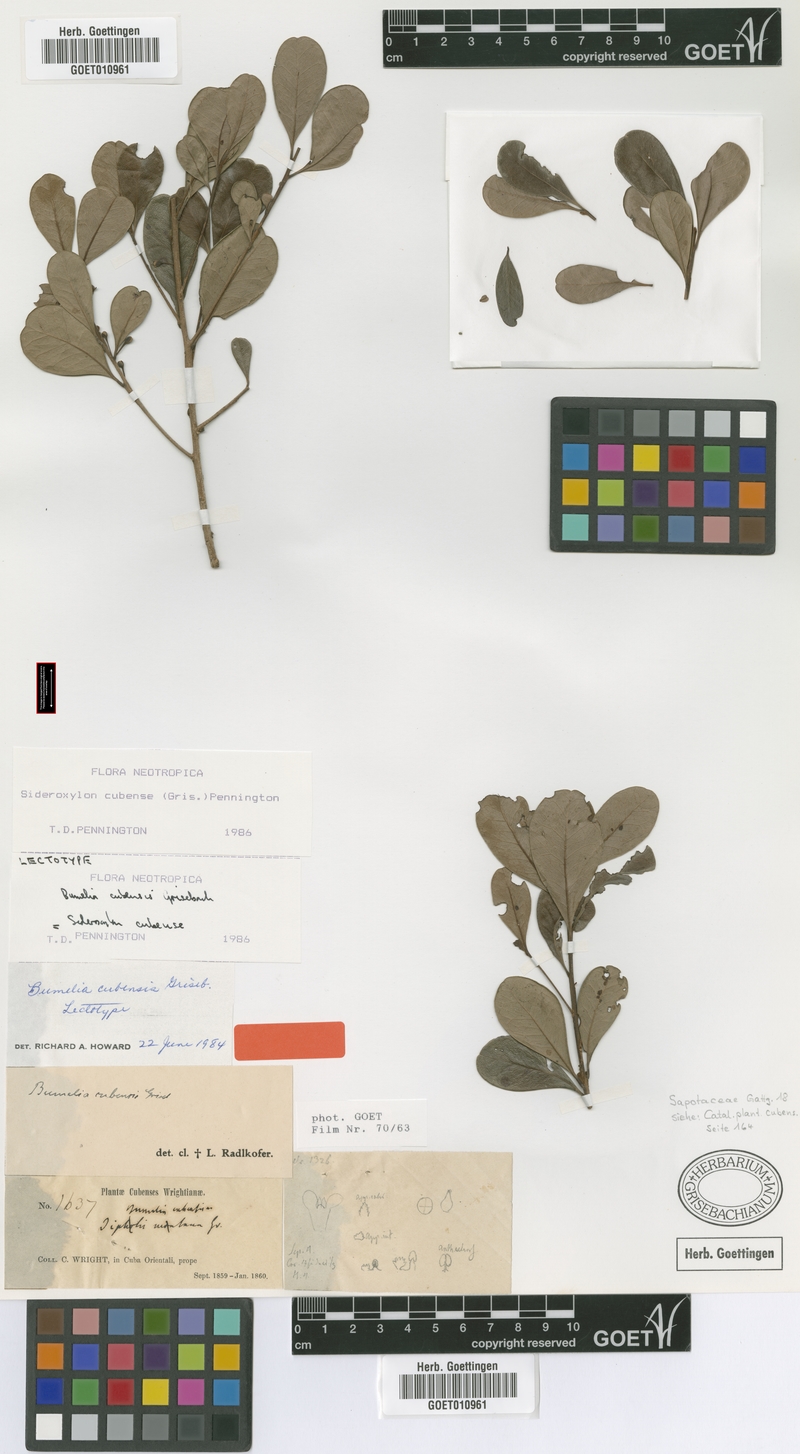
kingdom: Plantae
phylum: Tracheophyta
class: Magnoliopsida
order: Ericales
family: Sapotaceae
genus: Sideroxylon
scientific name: Sideroxylon cubense
